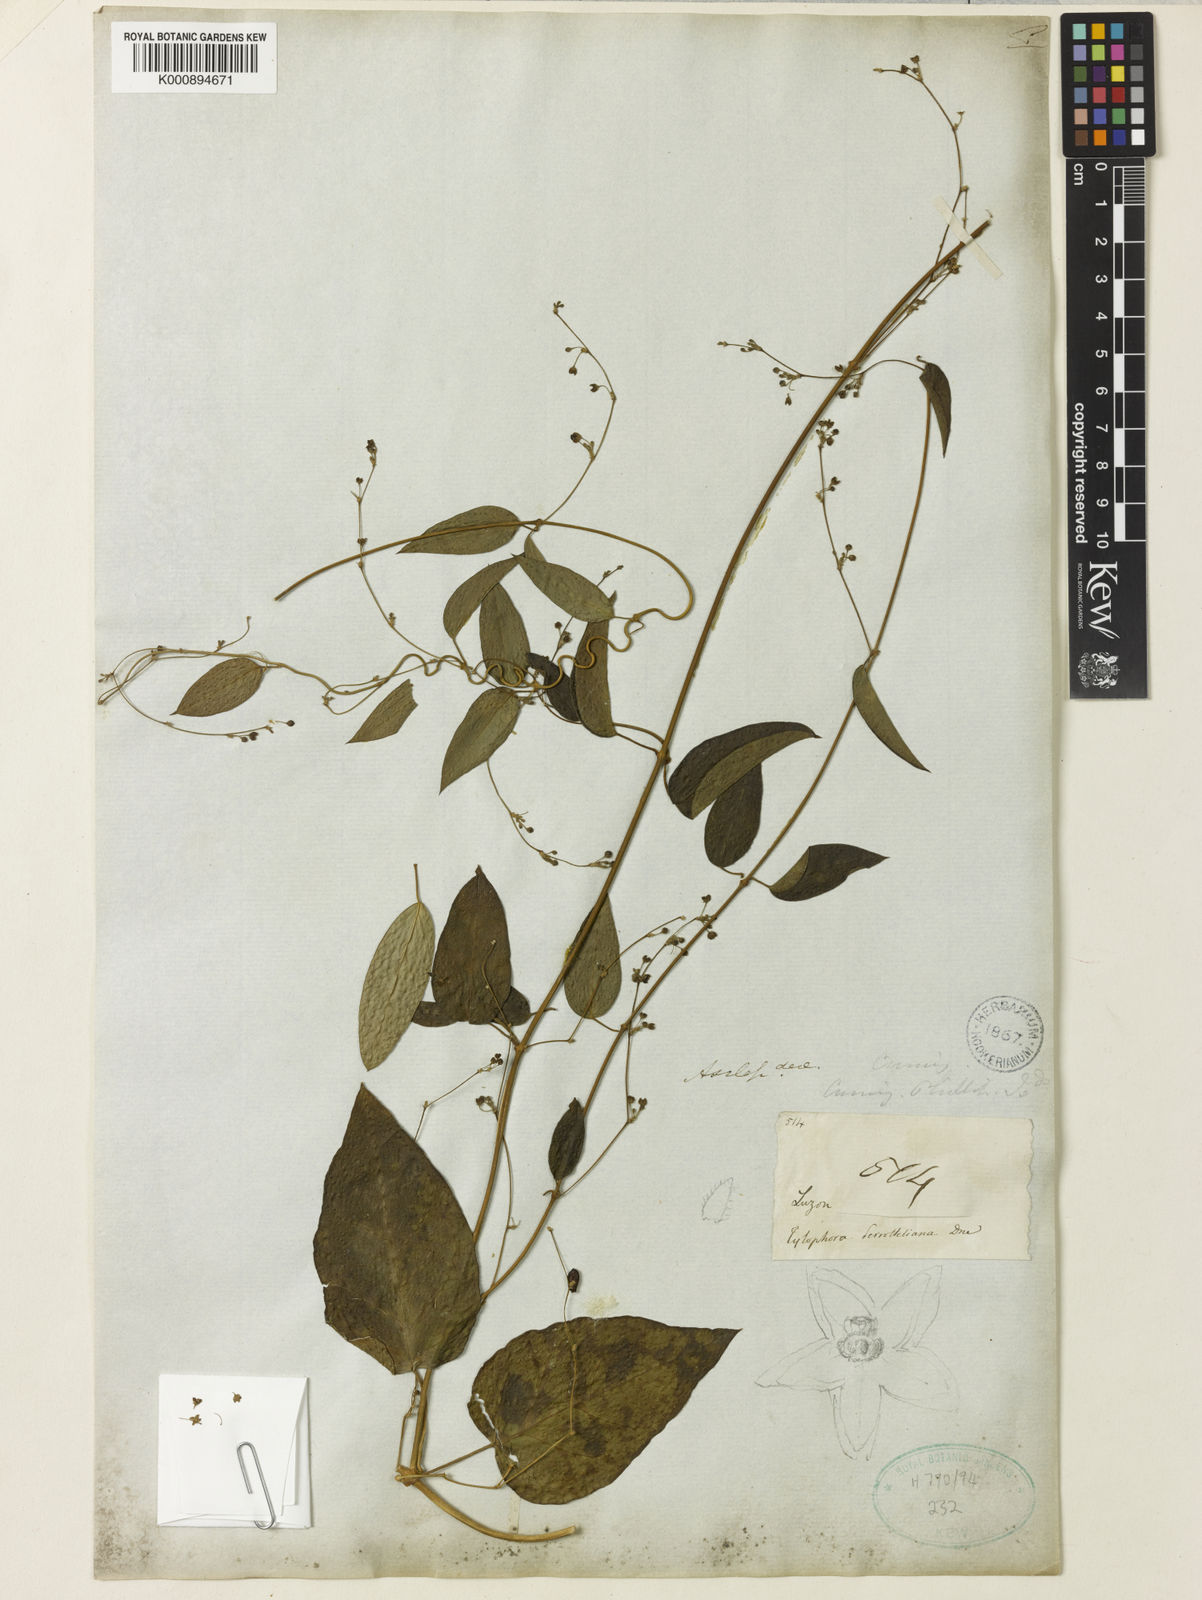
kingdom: Plantae
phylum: Tracheophyta
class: Magnoliopsida
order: Gentianales
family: Apocynaceae
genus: Vincetoxicum
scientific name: Vincetoxicum flexuosum
